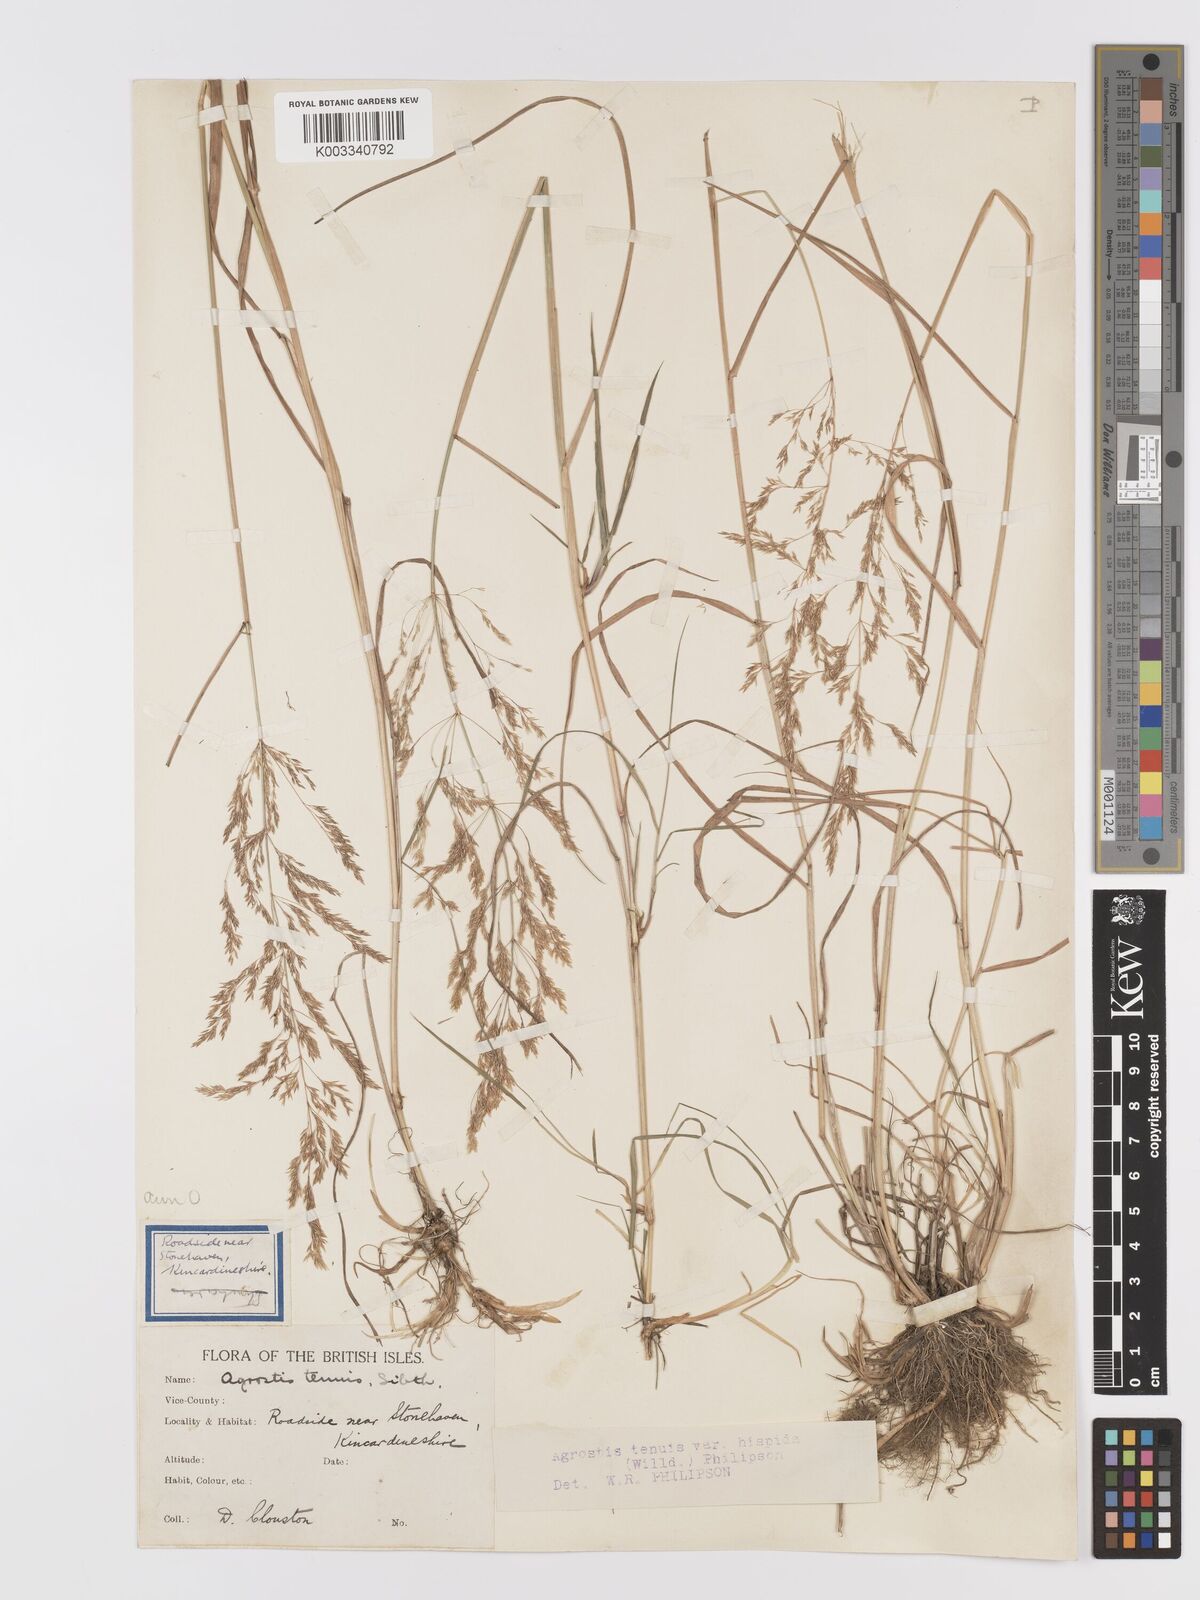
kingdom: Plantae
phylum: Tracheophyta
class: Liliopsida
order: Poales
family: Poaceae
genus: Agrostis
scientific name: Agrostis capillaris
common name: Colonial bentgrass
